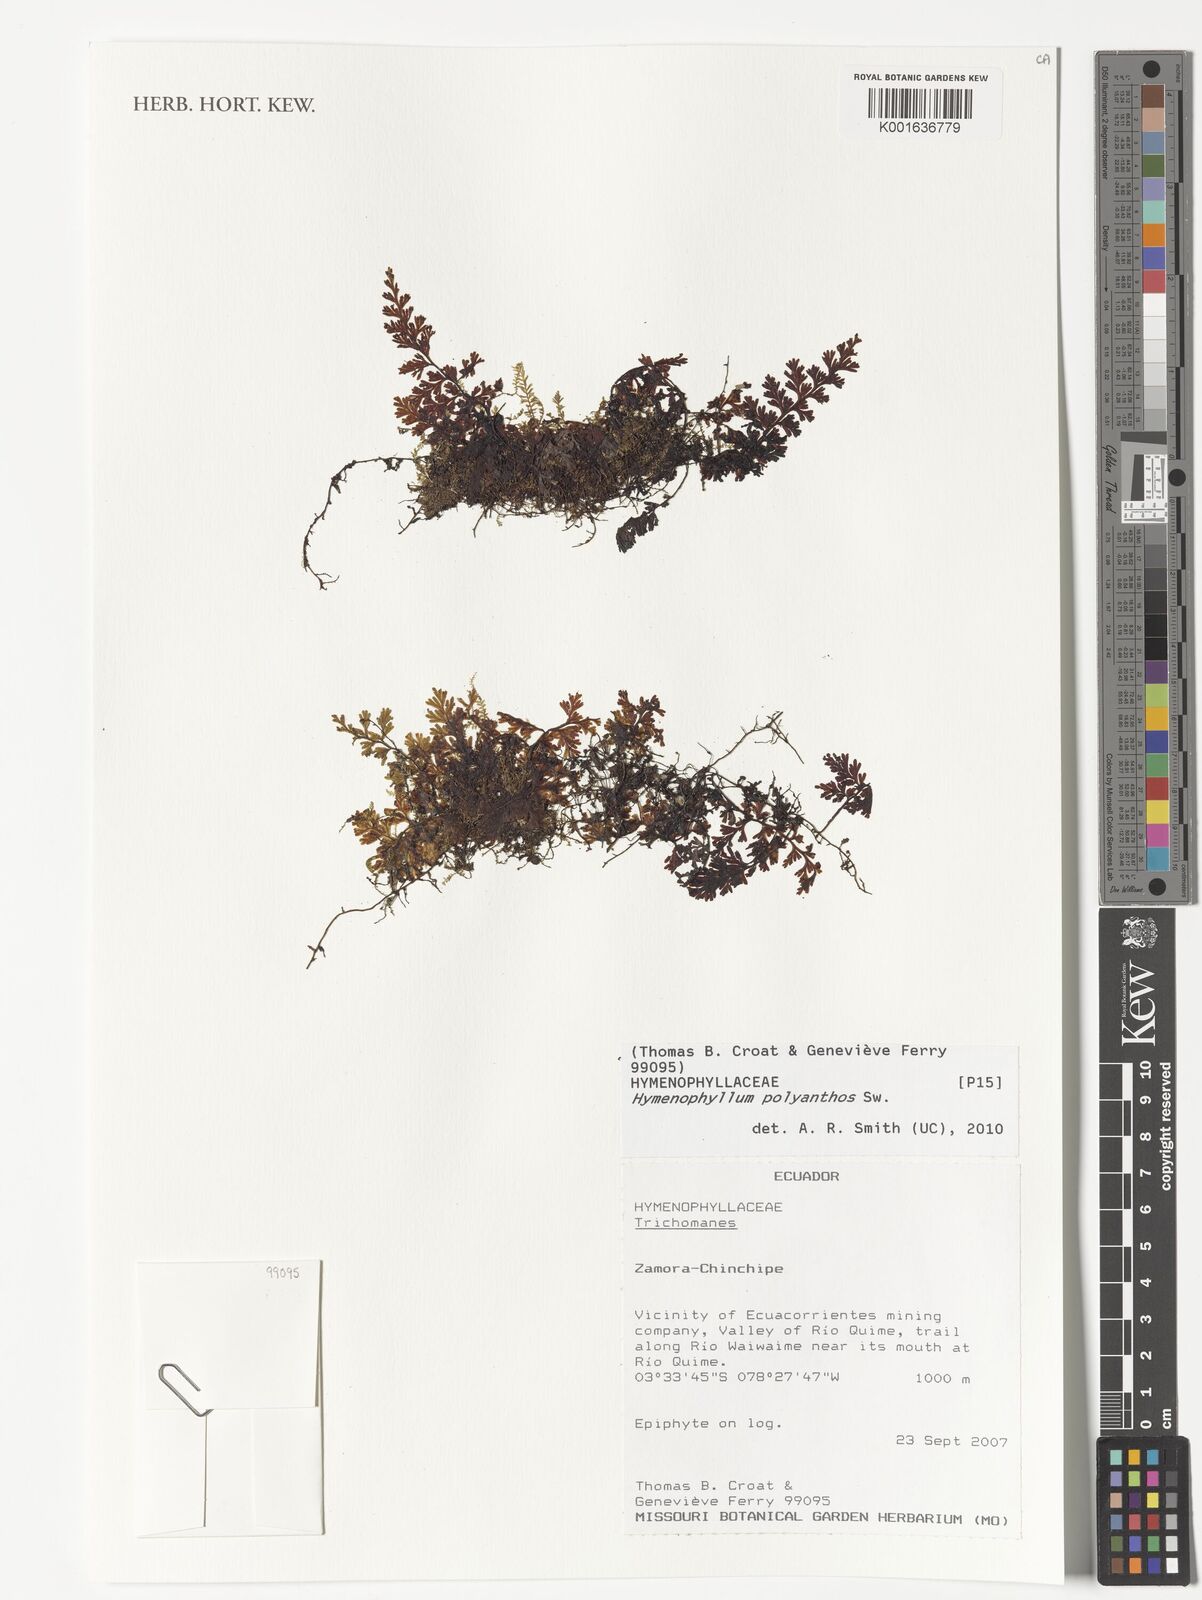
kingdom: Plantae
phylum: Tracheophyta
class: Polypodiopsida
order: Hymenophyllales
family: Hymenophyllaceae
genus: Hymenophyllum
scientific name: Hymenophyllum polyanthos
